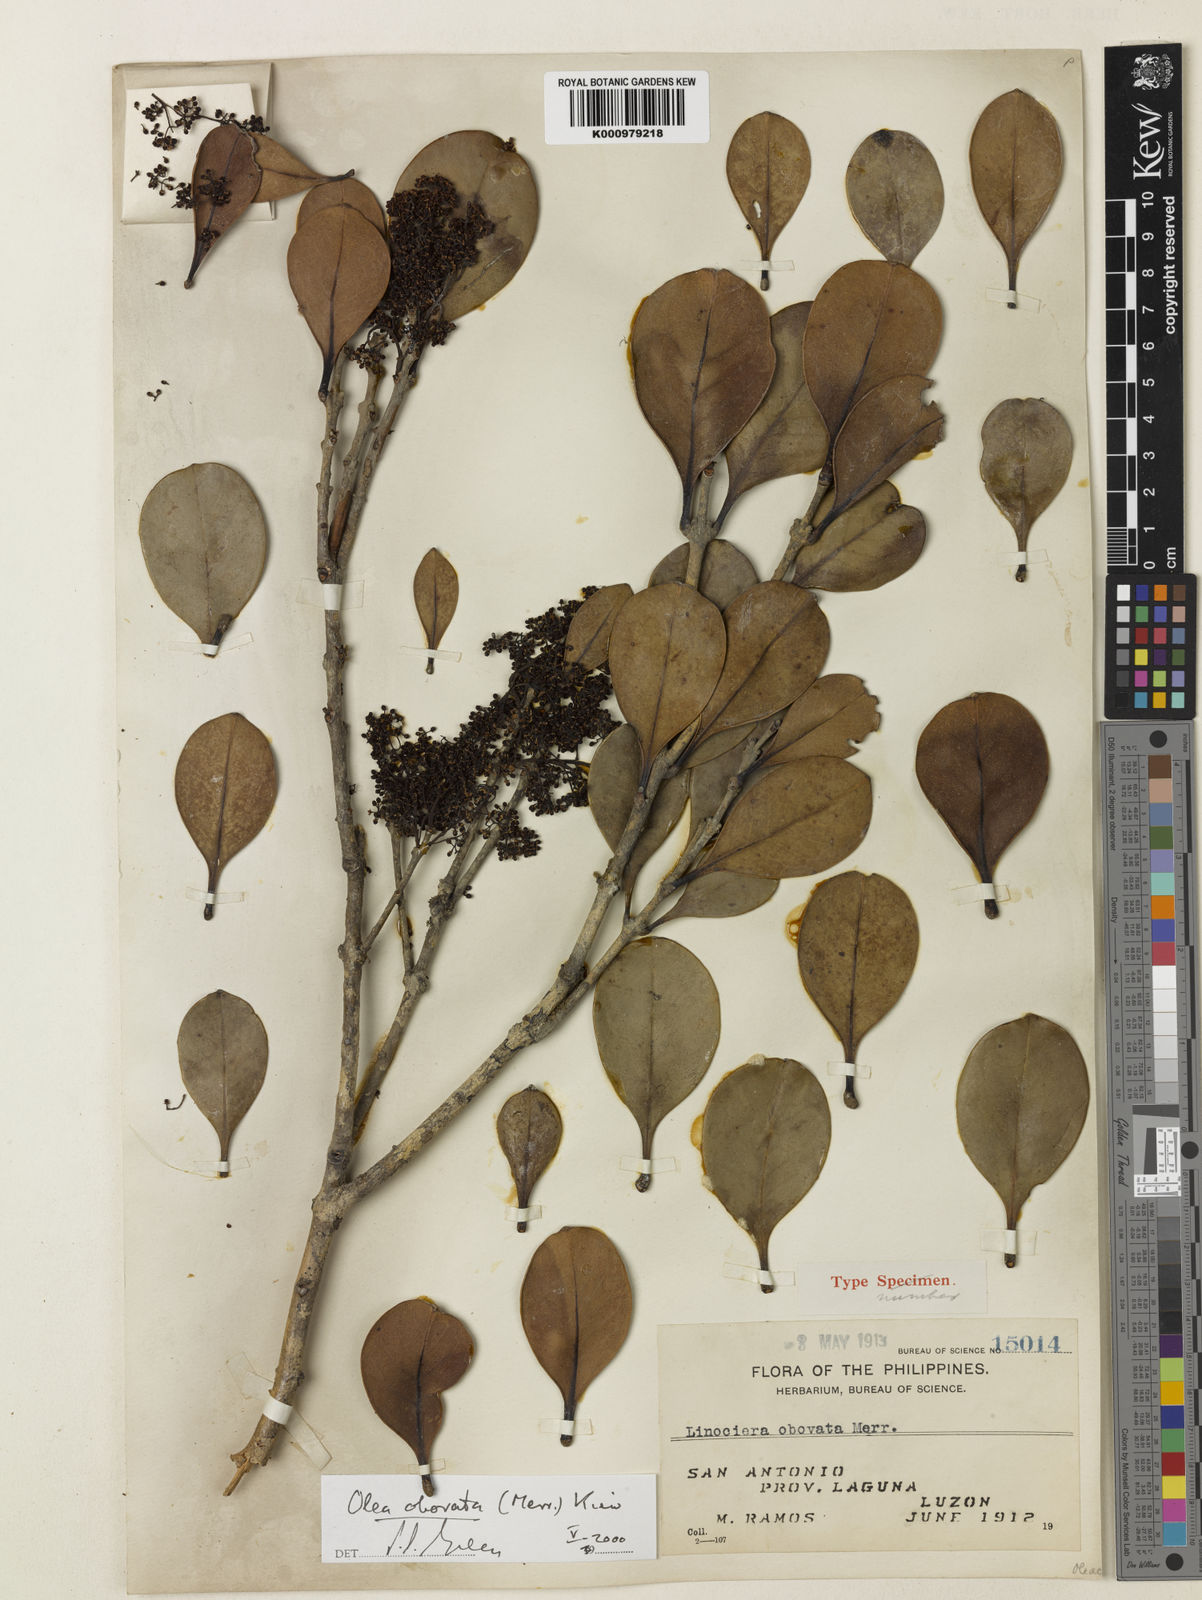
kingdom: Plantae
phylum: Tracheophyta
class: Magnoliopsida
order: Lamiales
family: Oleaceae
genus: Olea
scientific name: Olea luzonica
